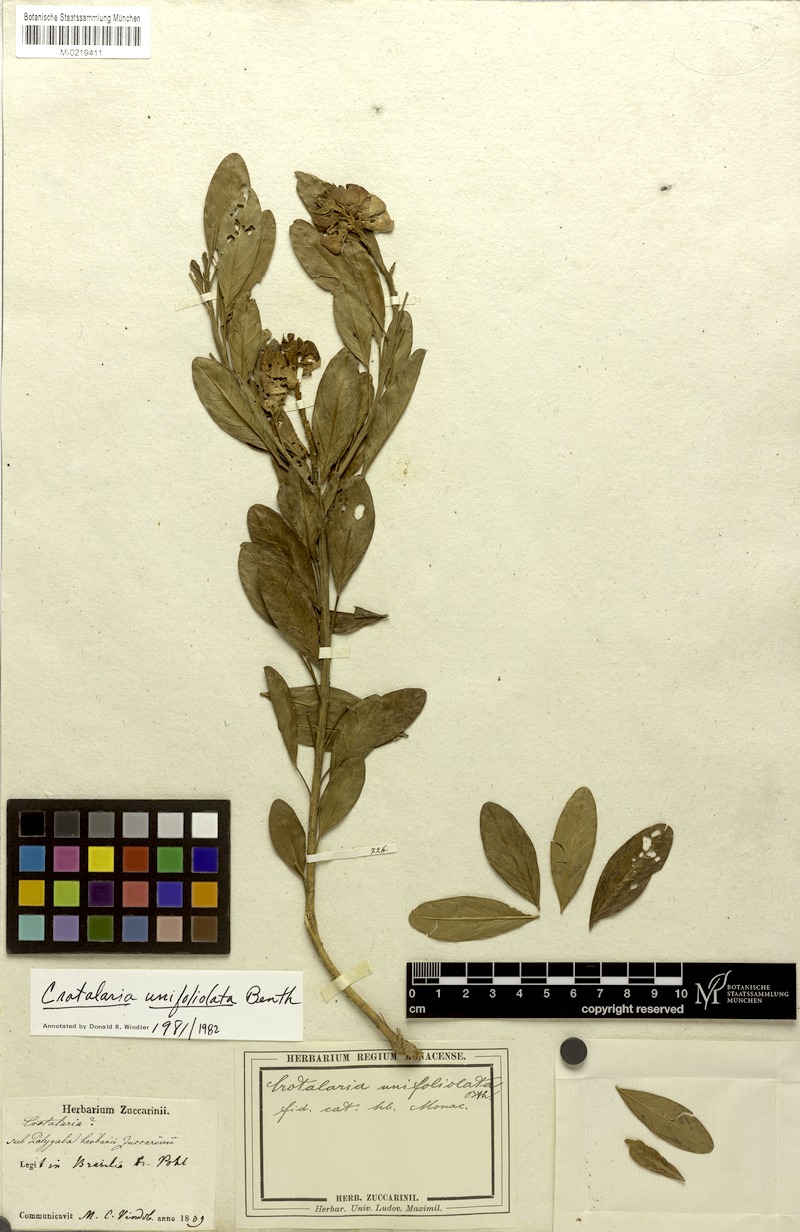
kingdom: Plantae
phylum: Tracheophyta
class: Magnoliopsida
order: Fabales
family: Fabaceae
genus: Crotalaria
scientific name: Crotalaria unifoliolata
